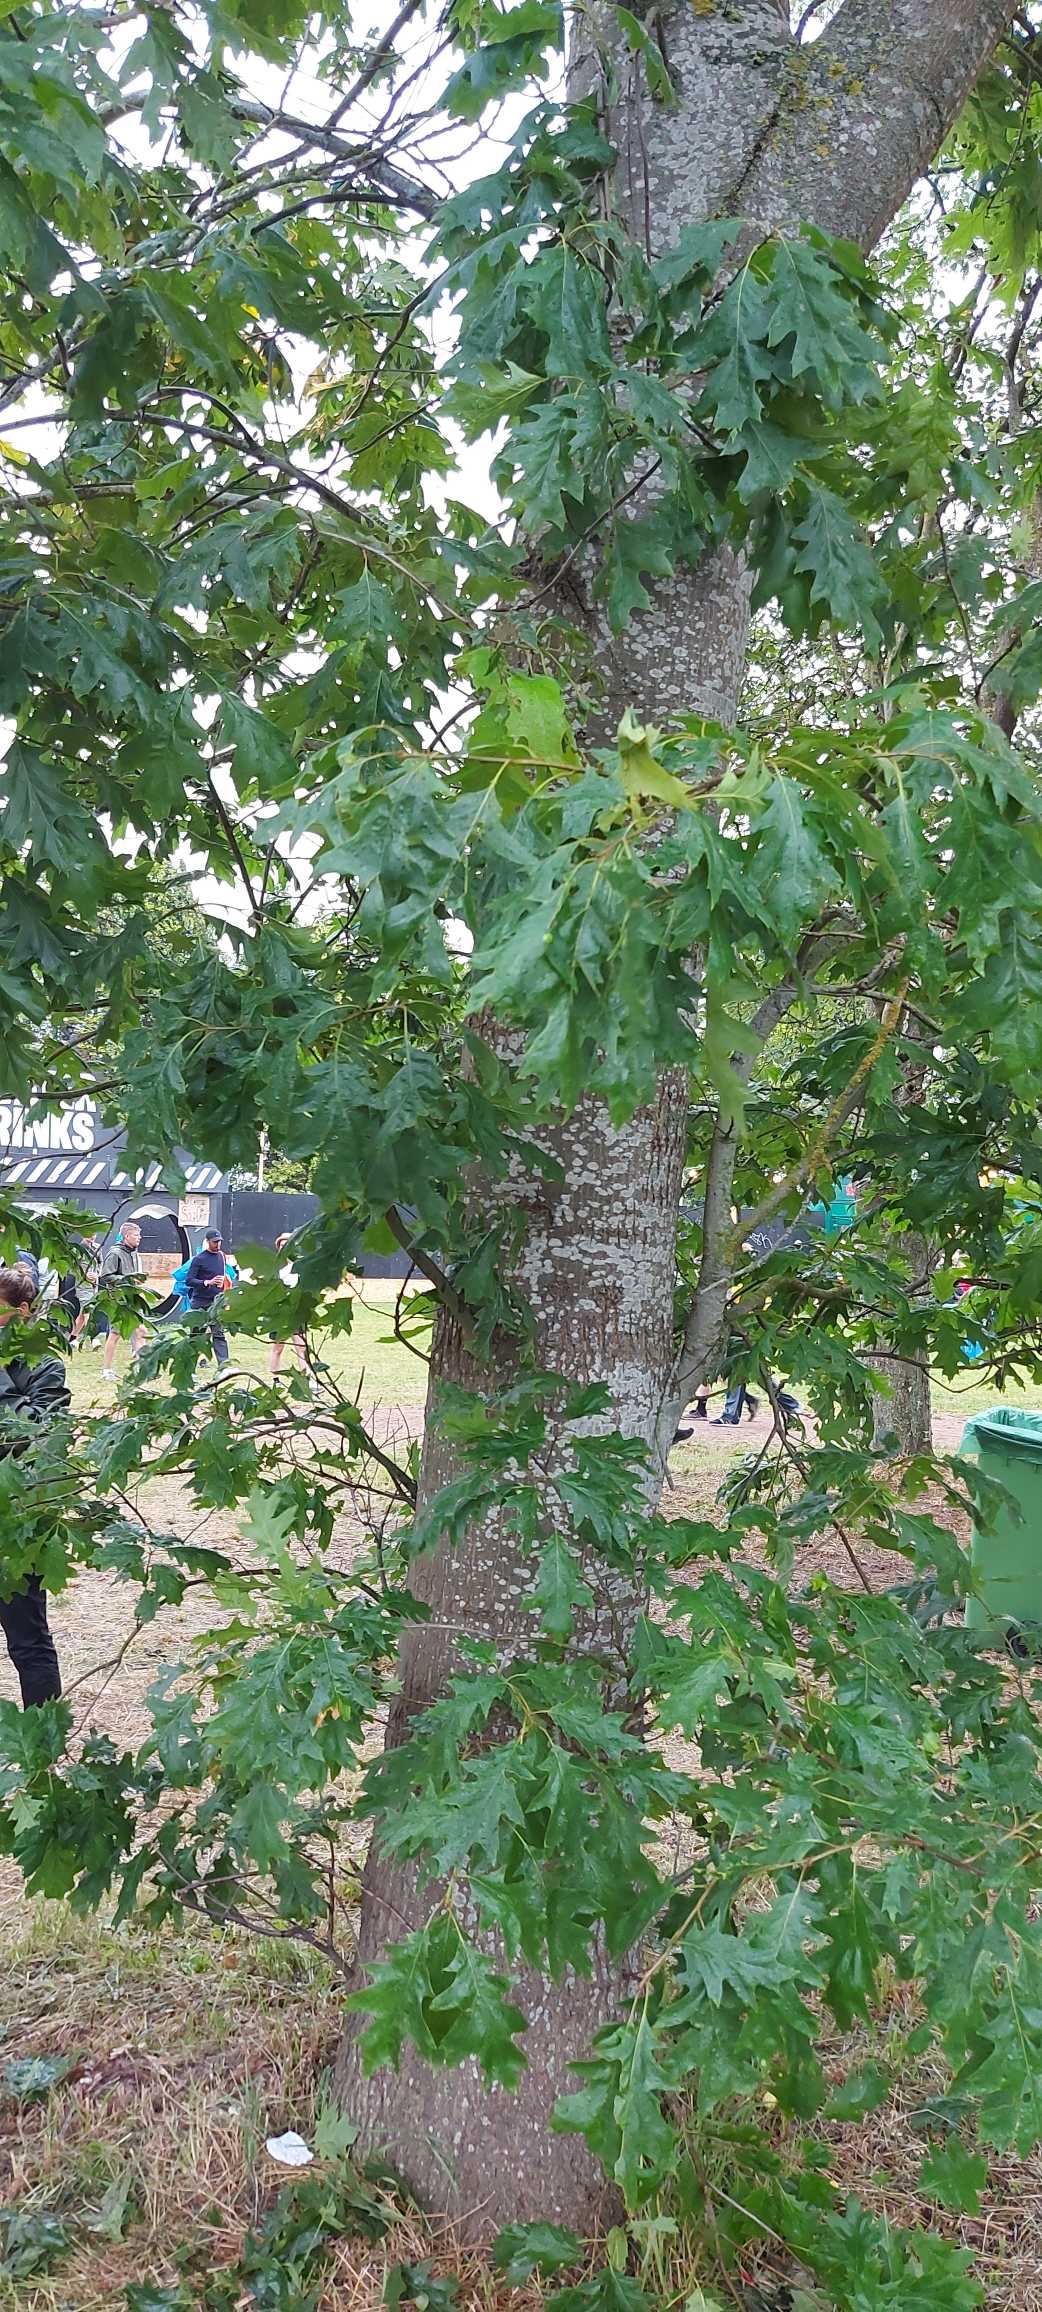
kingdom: Plantae
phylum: Tracheophyta
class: Magnoliopsida
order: Fagales
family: Fagaceae
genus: Quercus
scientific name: Quercus rubra
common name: Rød-eg
